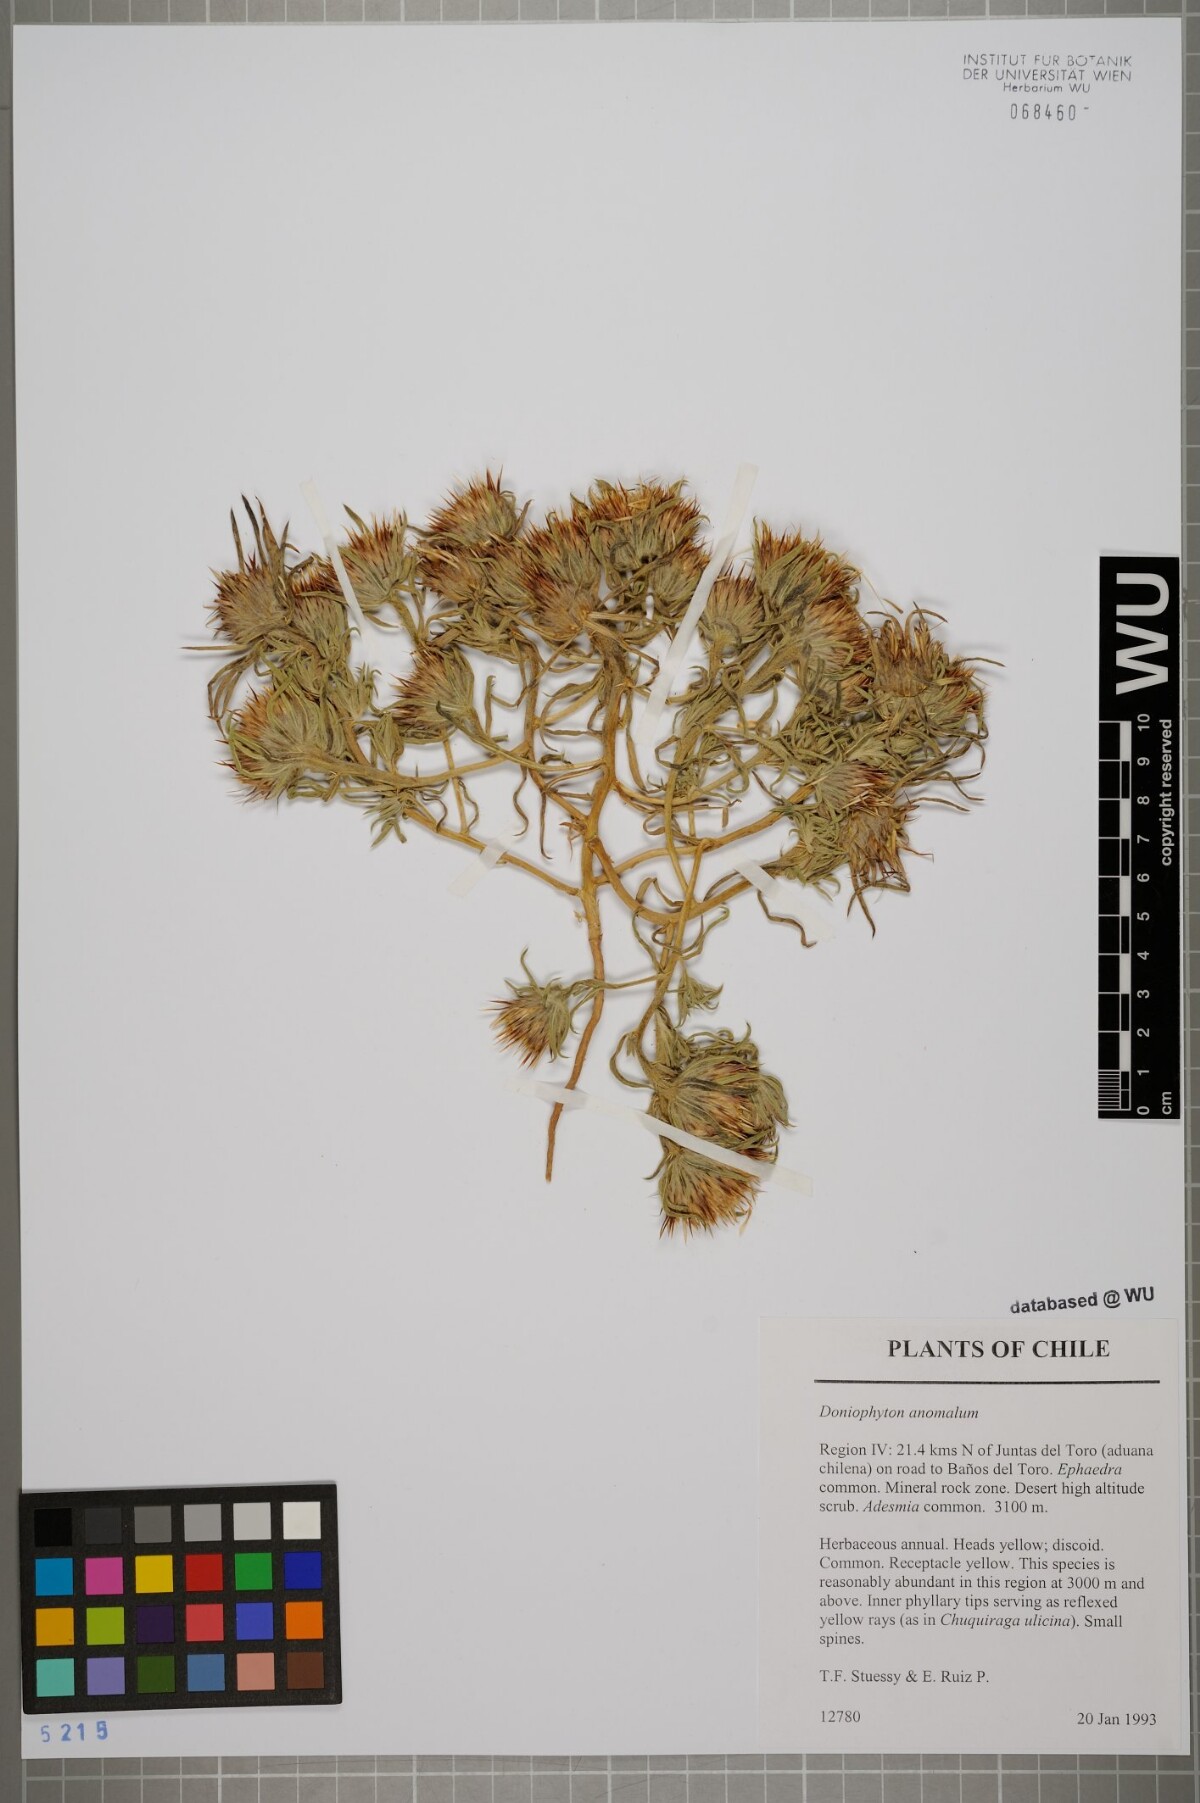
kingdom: Plantae
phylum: Tracheophyta
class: Magnoliopsida
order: Asterales
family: Asteraceae
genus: Doniophyton
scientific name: Doniophyton weddellii
